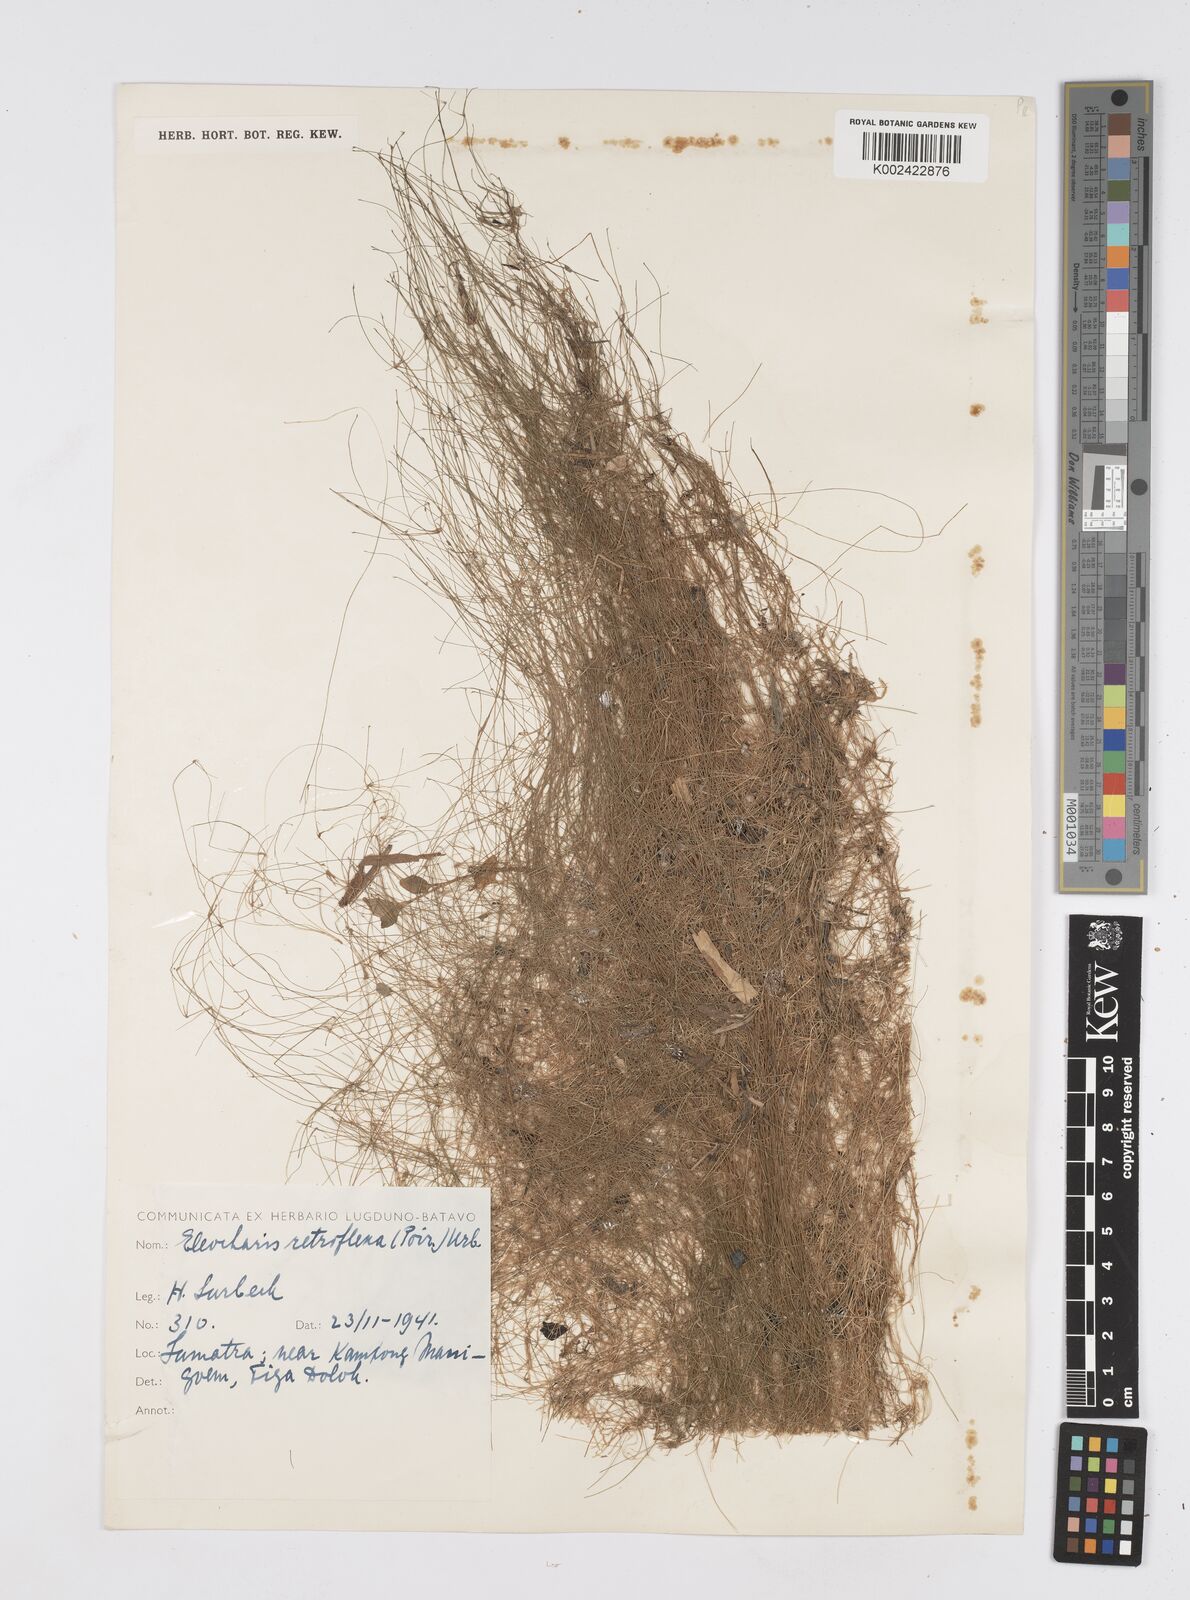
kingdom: Plantae
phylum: Tracheophyta
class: Liliopsida
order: Poales
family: Cyperaceae
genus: Eleocharis
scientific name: Eleocharis retroflexa
